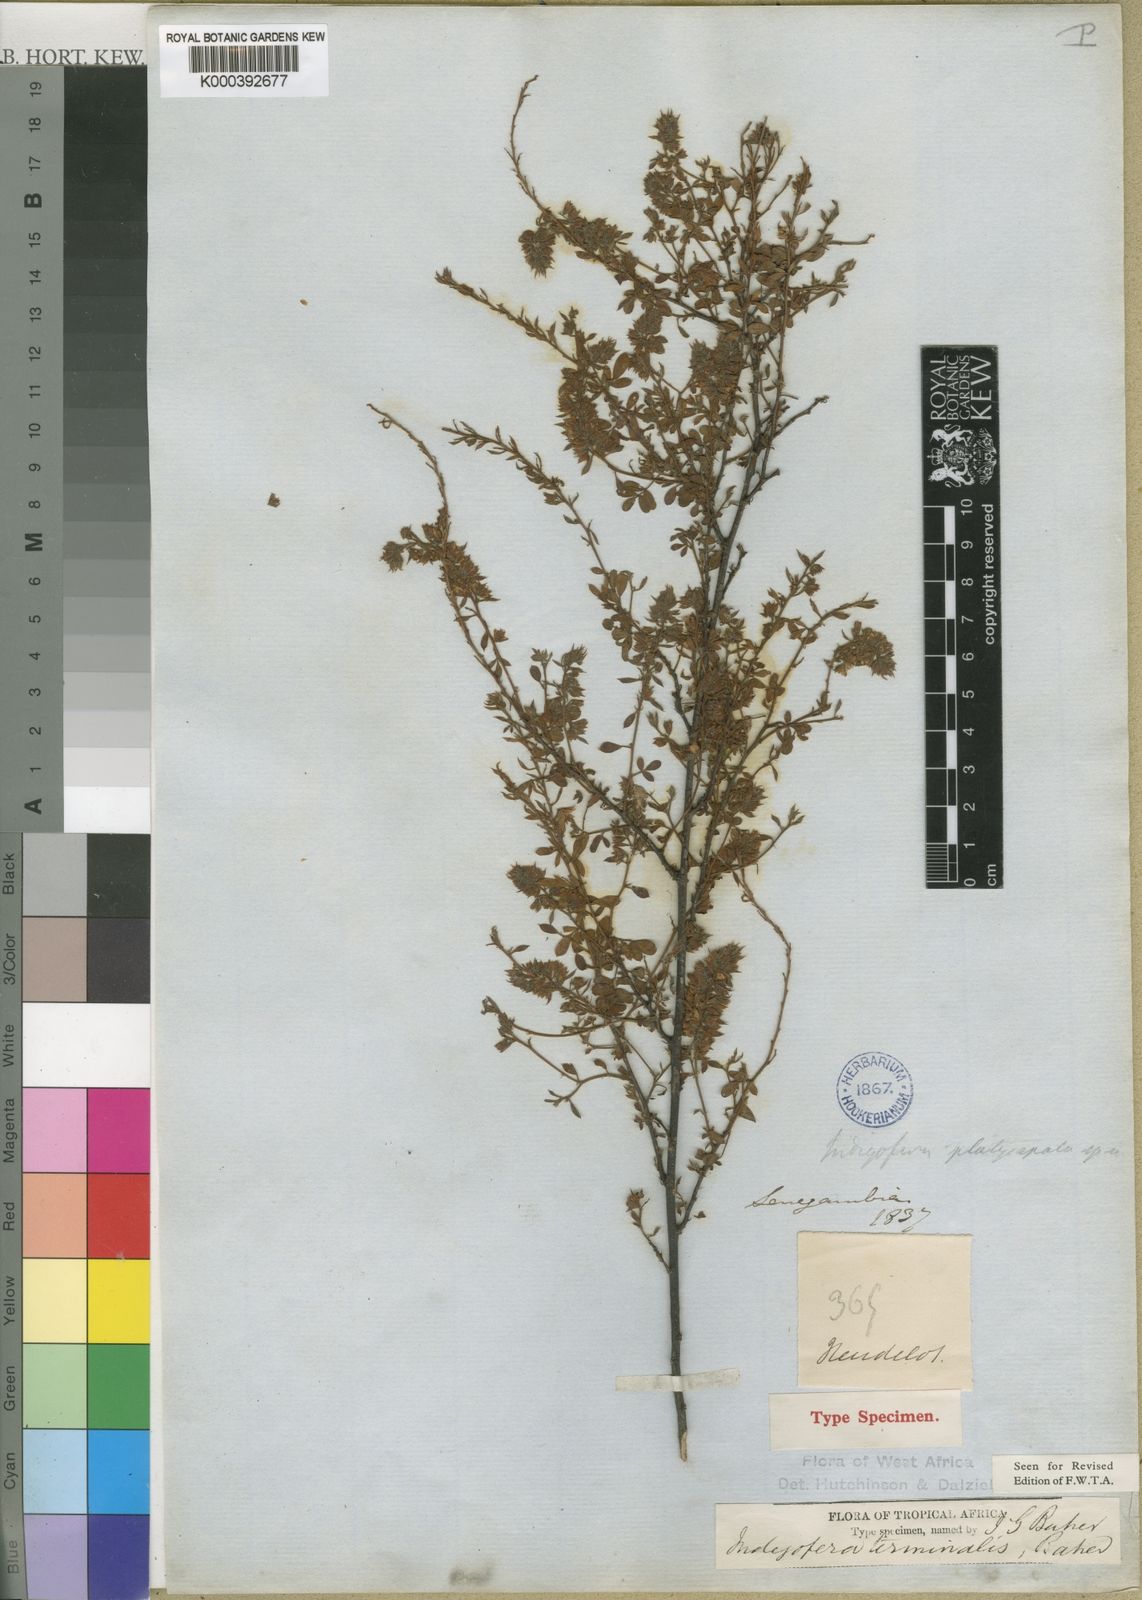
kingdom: Plantae
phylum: Tracheophyta
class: Magnoliopsida
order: Fabales
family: Fabaceae
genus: Indigofera
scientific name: Indigofera terminalis
